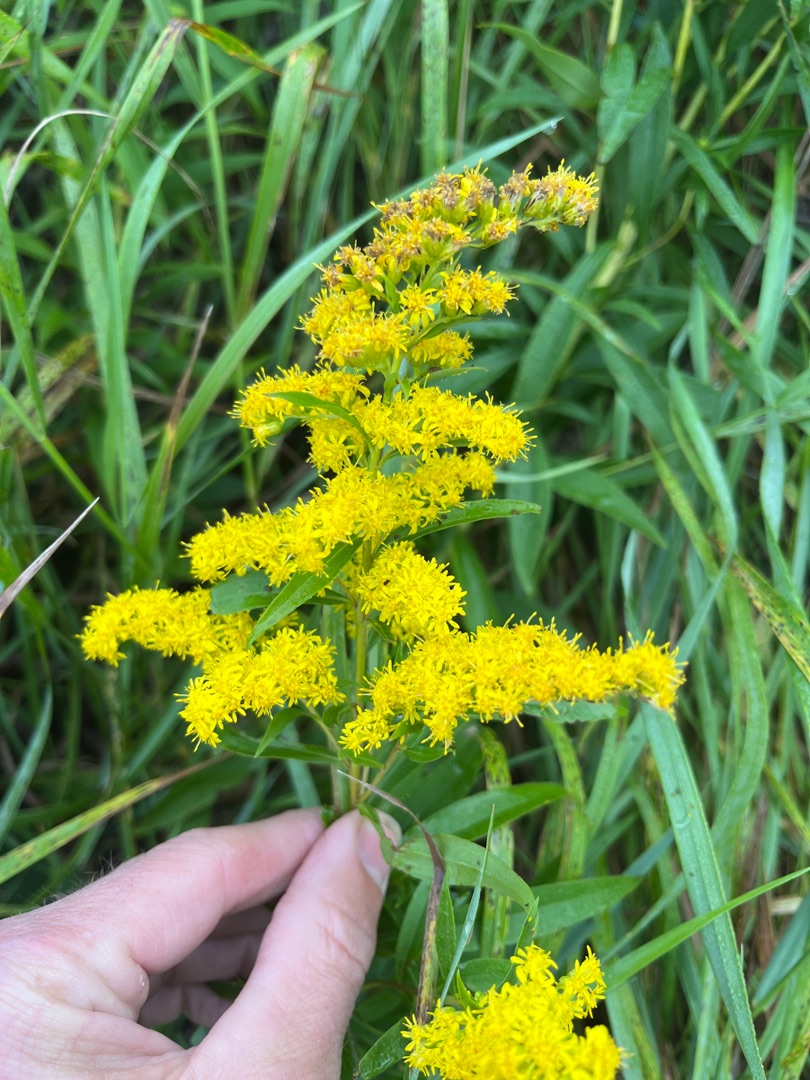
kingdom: Plantae
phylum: Tracheophyta
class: Magnoliopsida
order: Asterales
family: Asteraceae
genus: Solidago
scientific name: Solidago gigantea
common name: Sildig gyldenris
